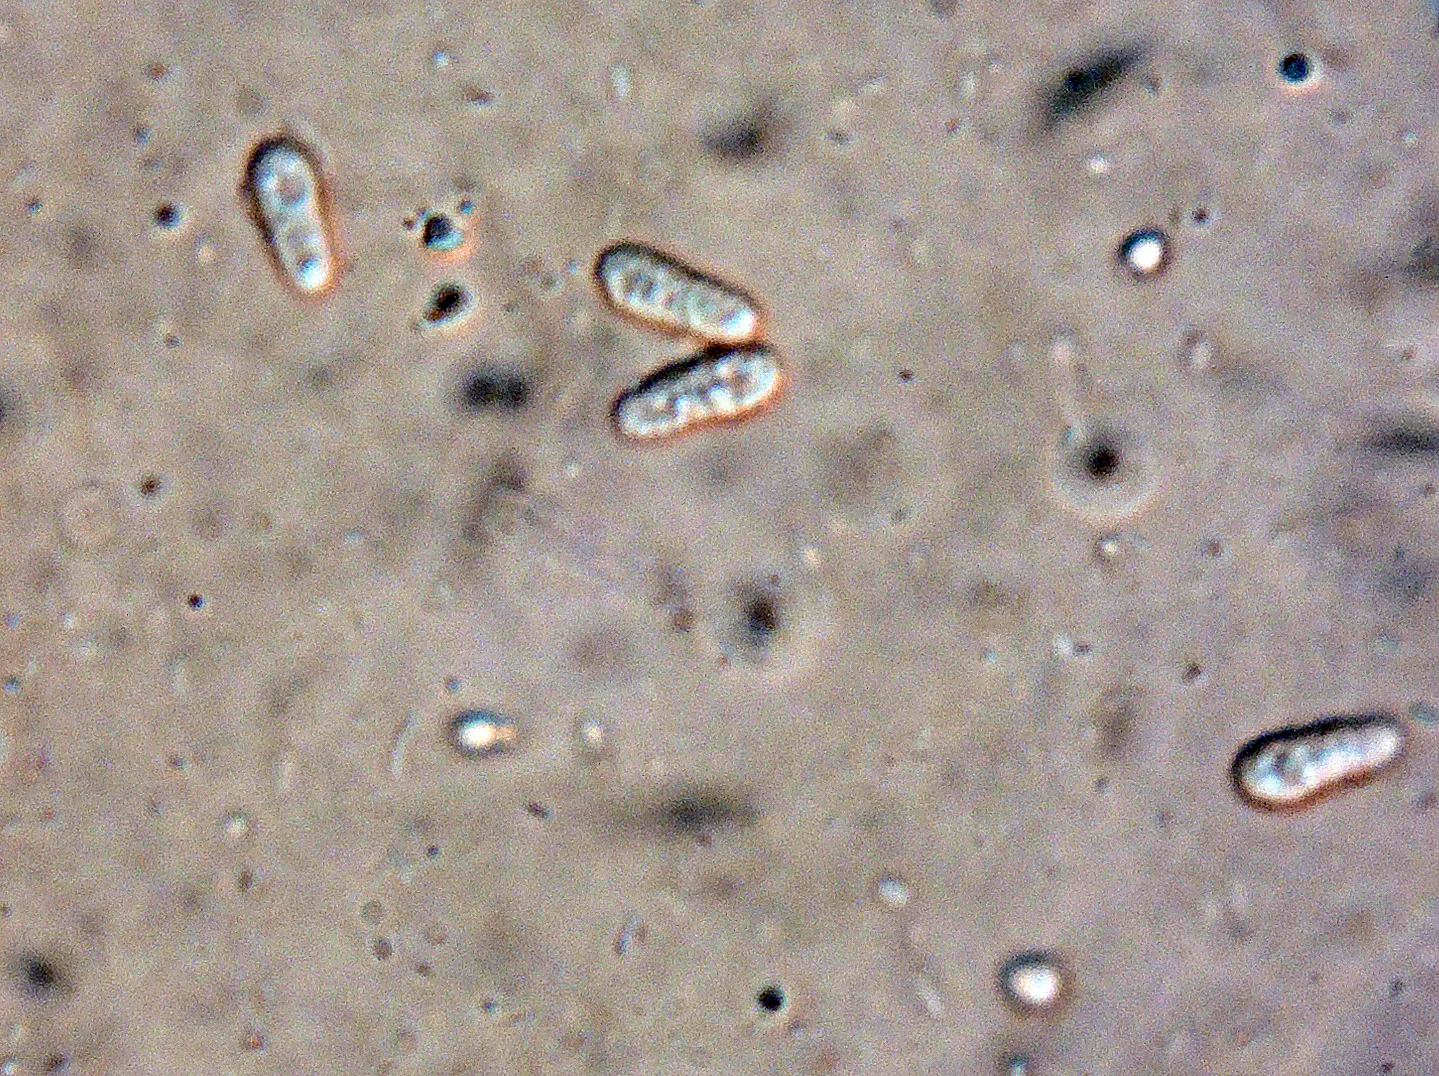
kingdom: Fungi
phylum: Ascomycota
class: Sordariomycetes
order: Hypocreales
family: Bionectriaceae
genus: Nectriopsis
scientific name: Nectriopsis tremellicola
